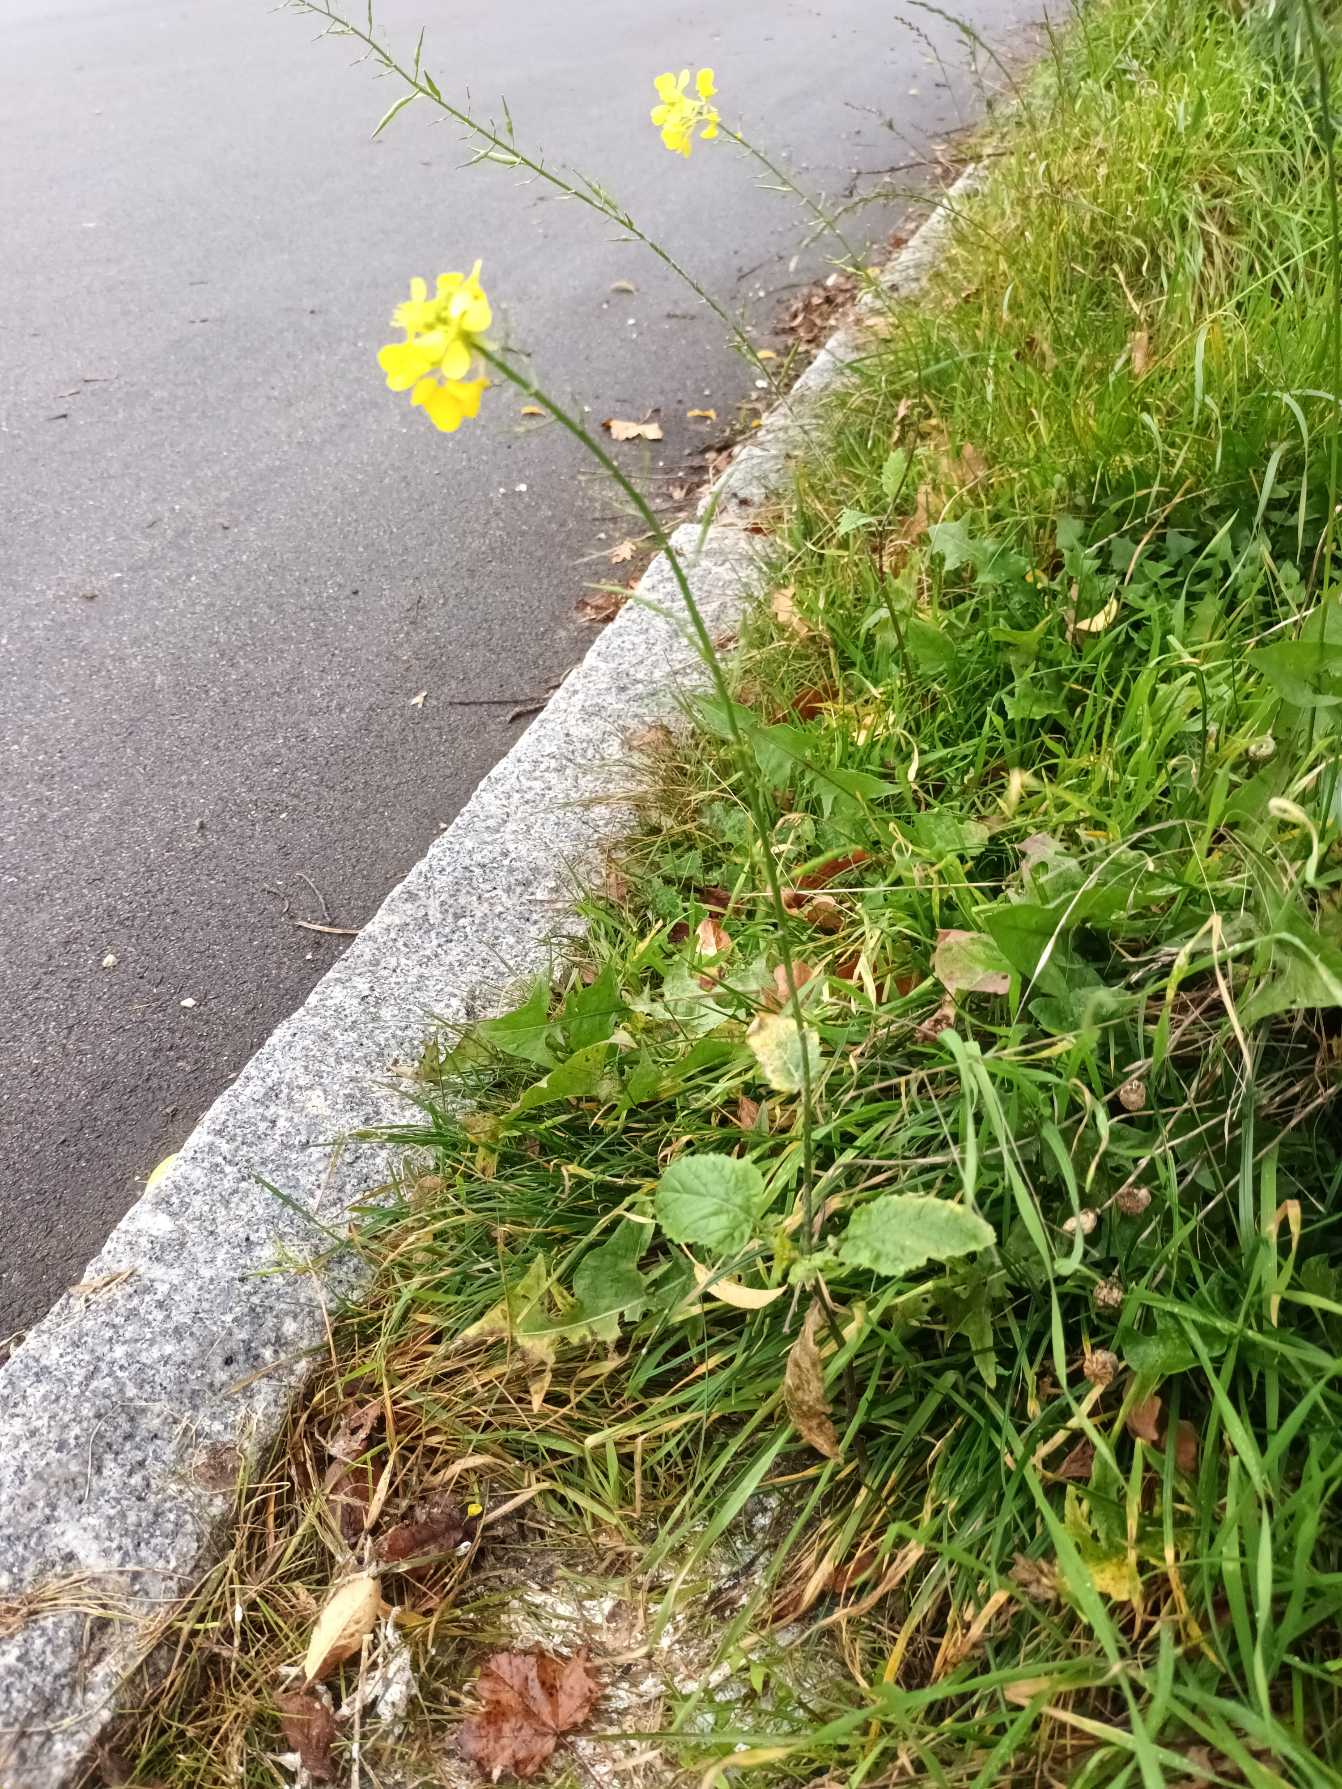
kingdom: Plantae
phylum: Tracheophyta
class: Magnoliopsida
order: Brassicales
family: Brassicaceae
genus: Sinapis
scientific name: Sinapis arvensis
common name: Ager-sennep
